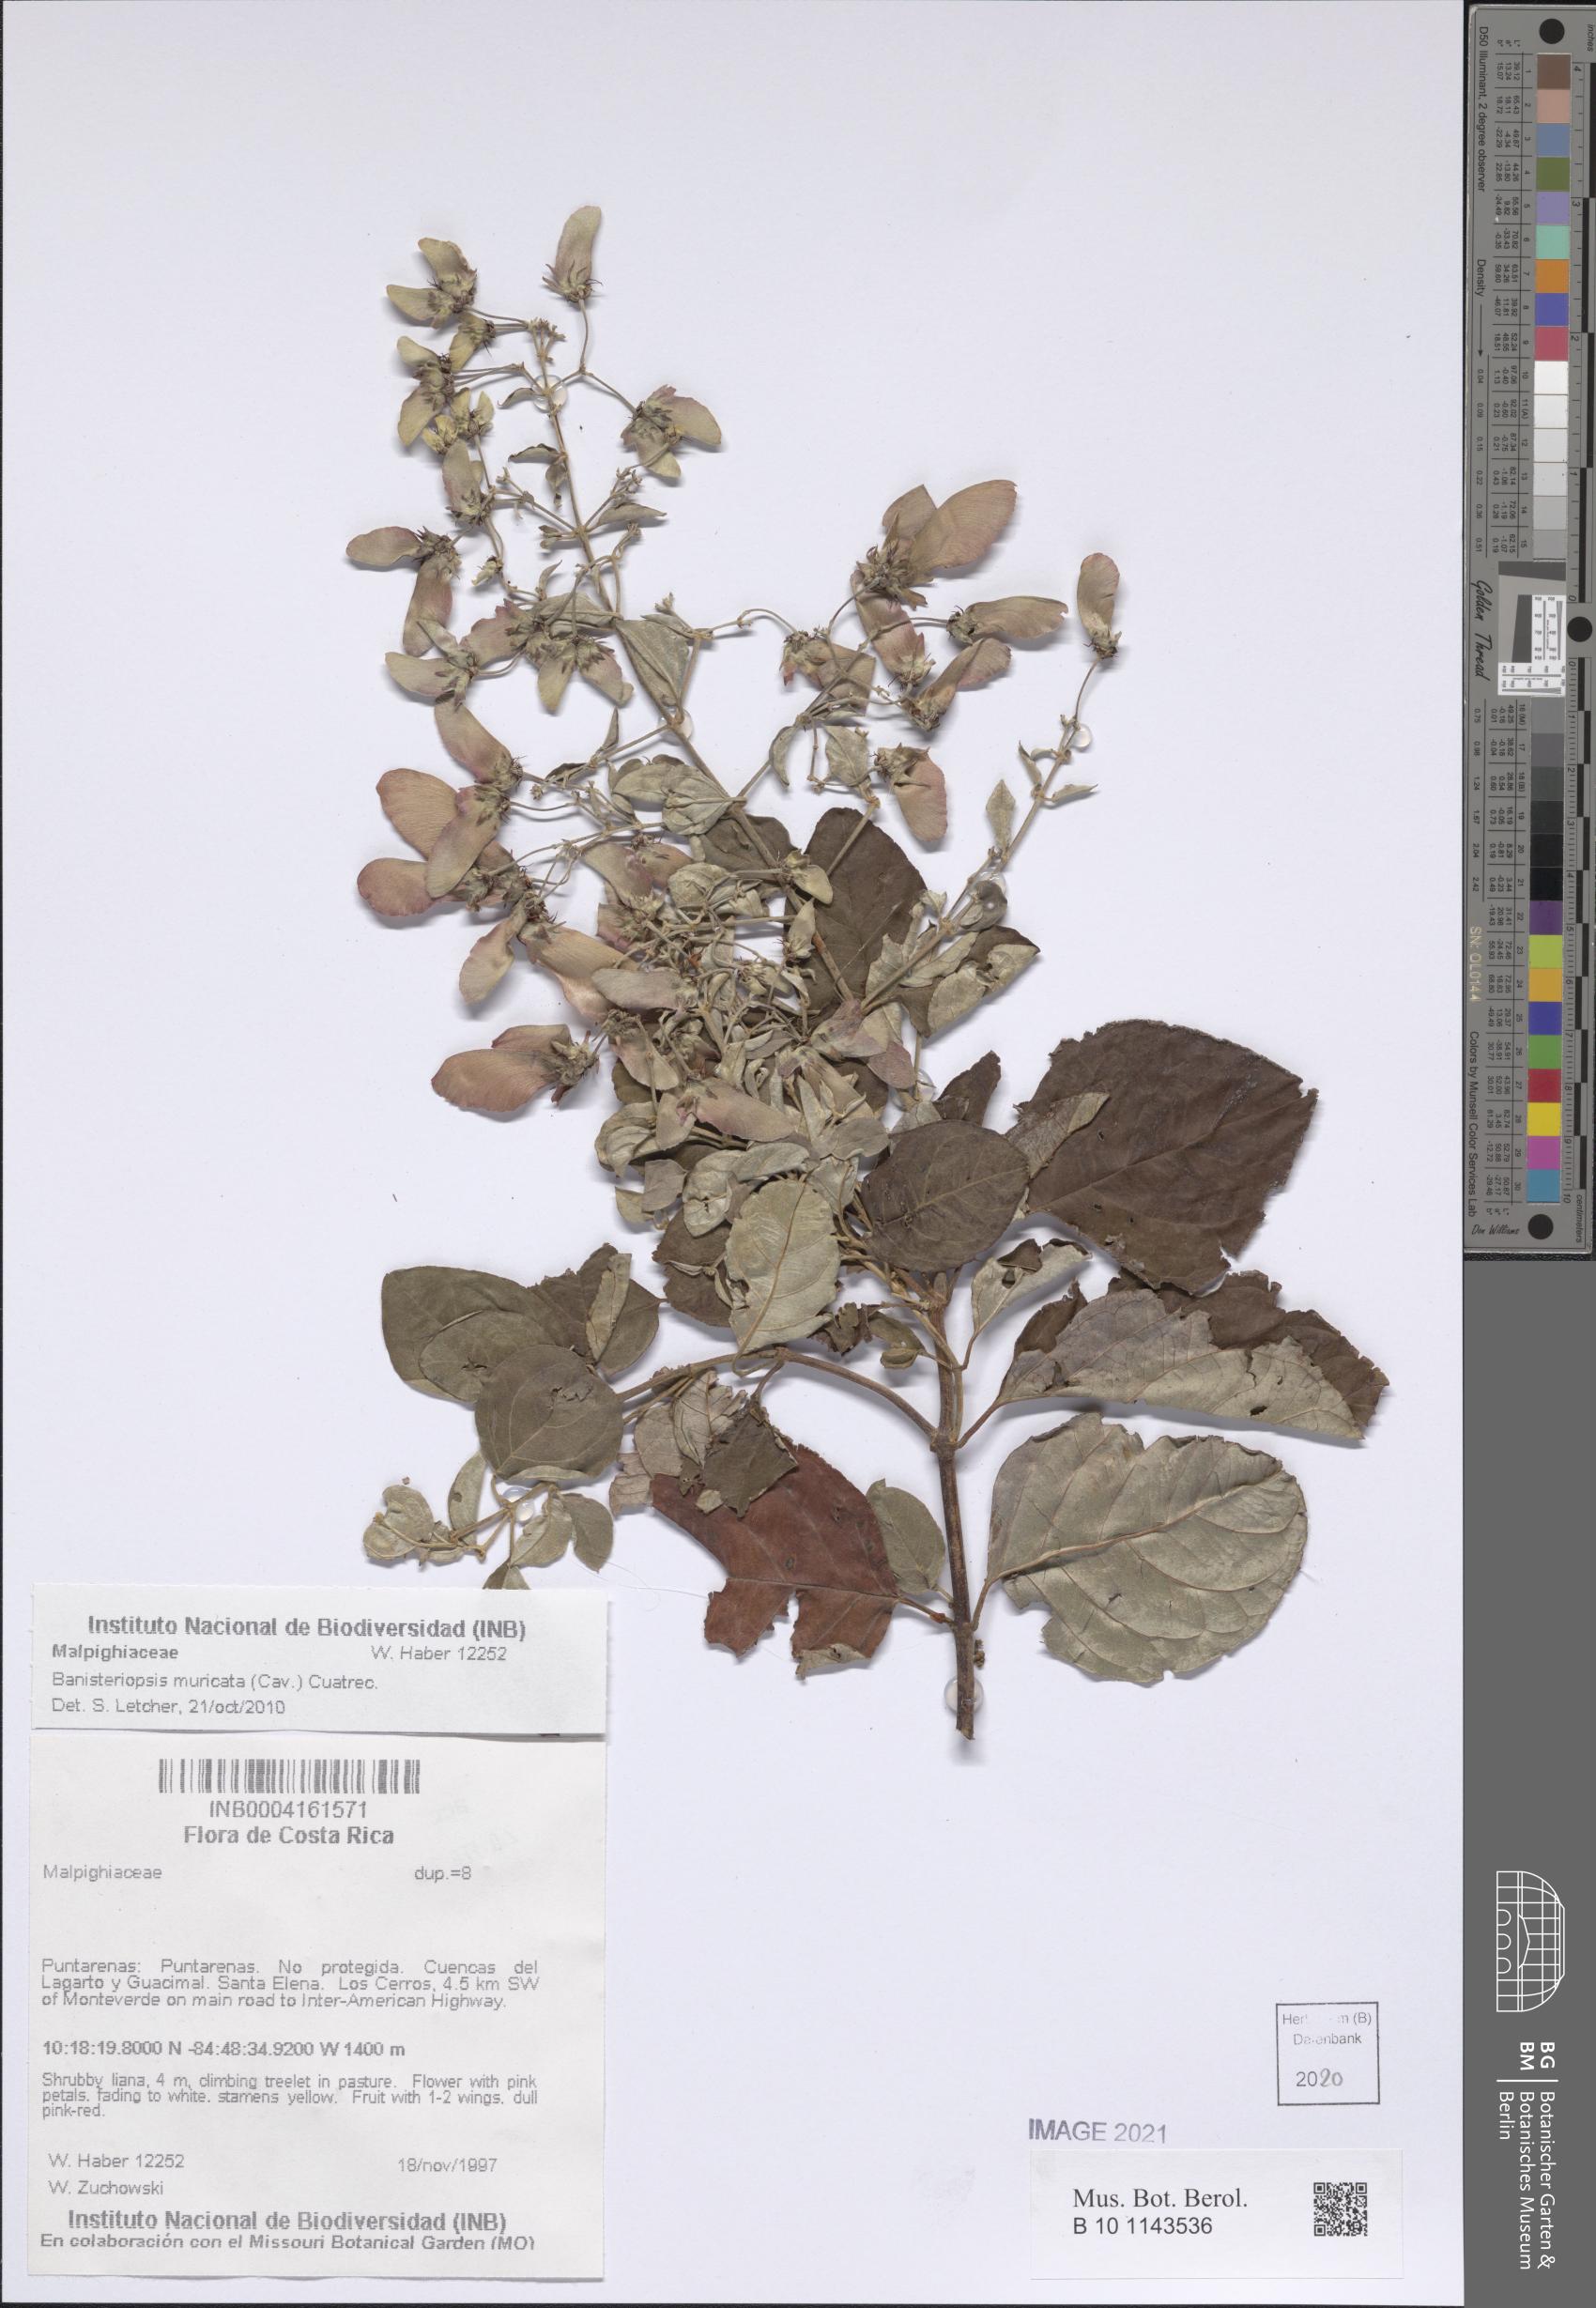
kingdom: Plantae
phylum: Tracheophyta
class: Magnoliopsida
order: Malpighiales
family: Malpighiaceae
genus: Banisteriopsis
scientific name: Banisteriopsis muricata
